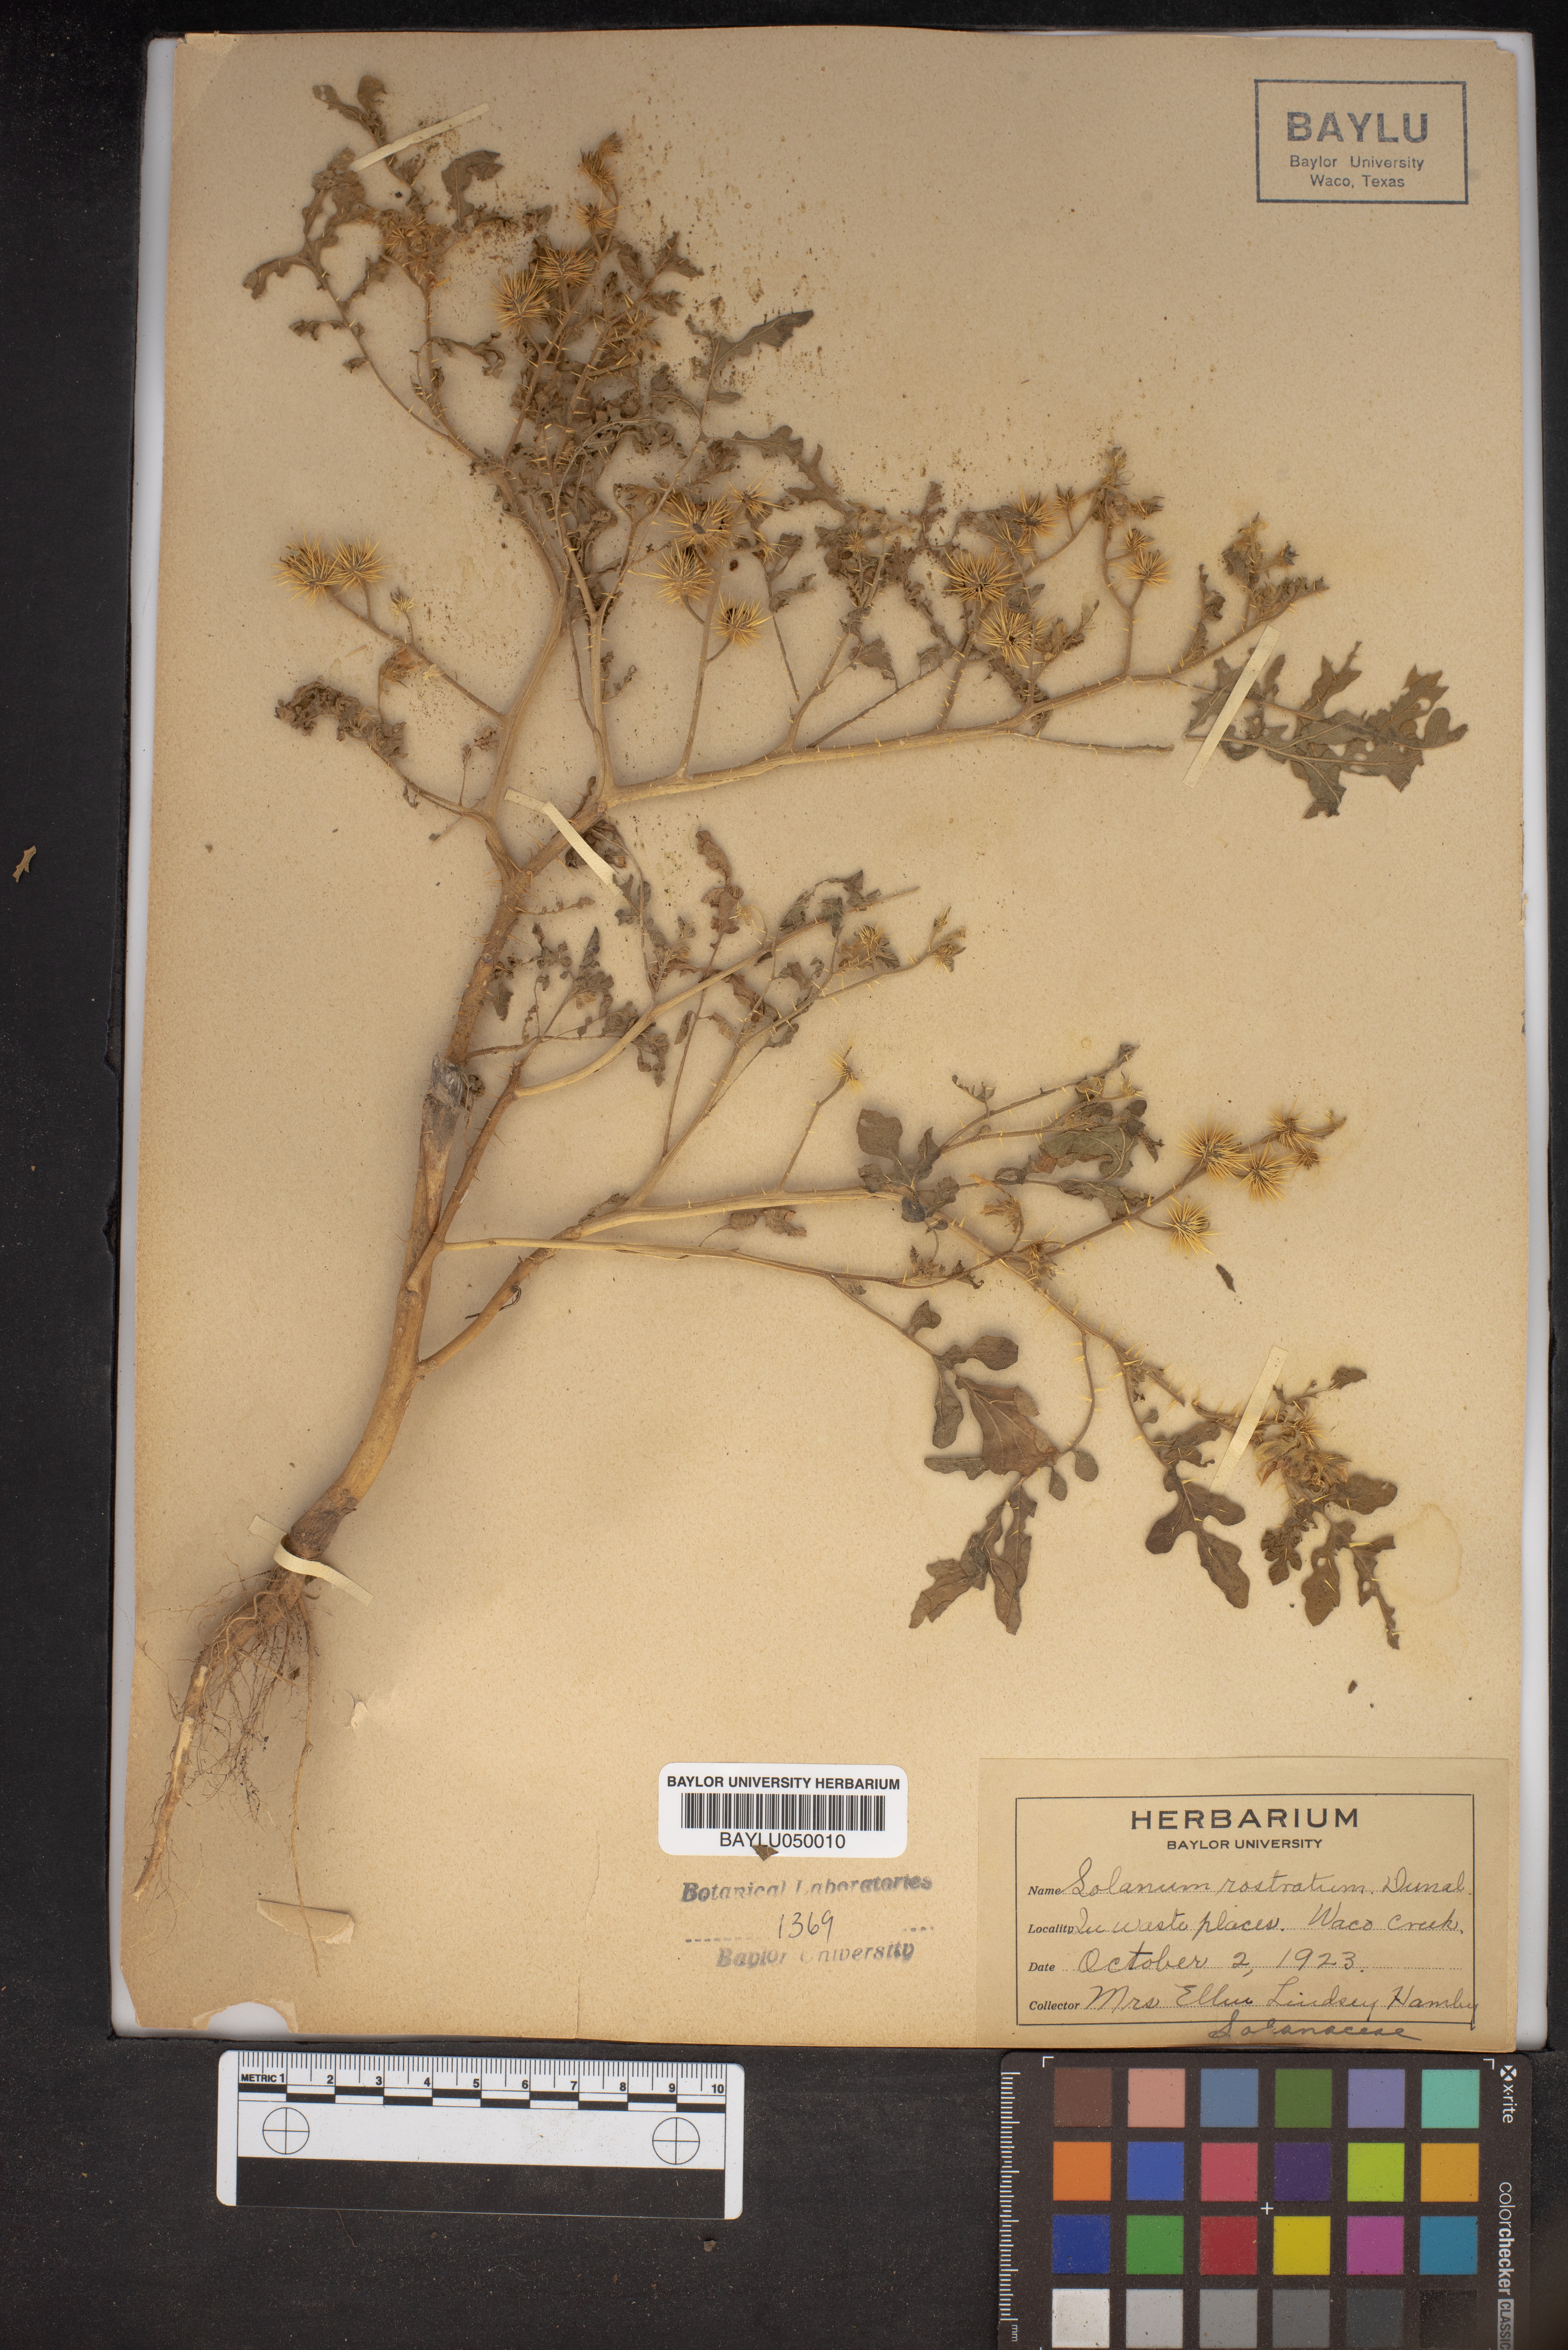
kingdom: Plantae
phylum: Tracheophyta
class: Magnoliopsida
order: Solanales
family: Solanaceae
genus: Solanum
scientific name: Solanum angustifolium
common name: Buffalobur nightshade
